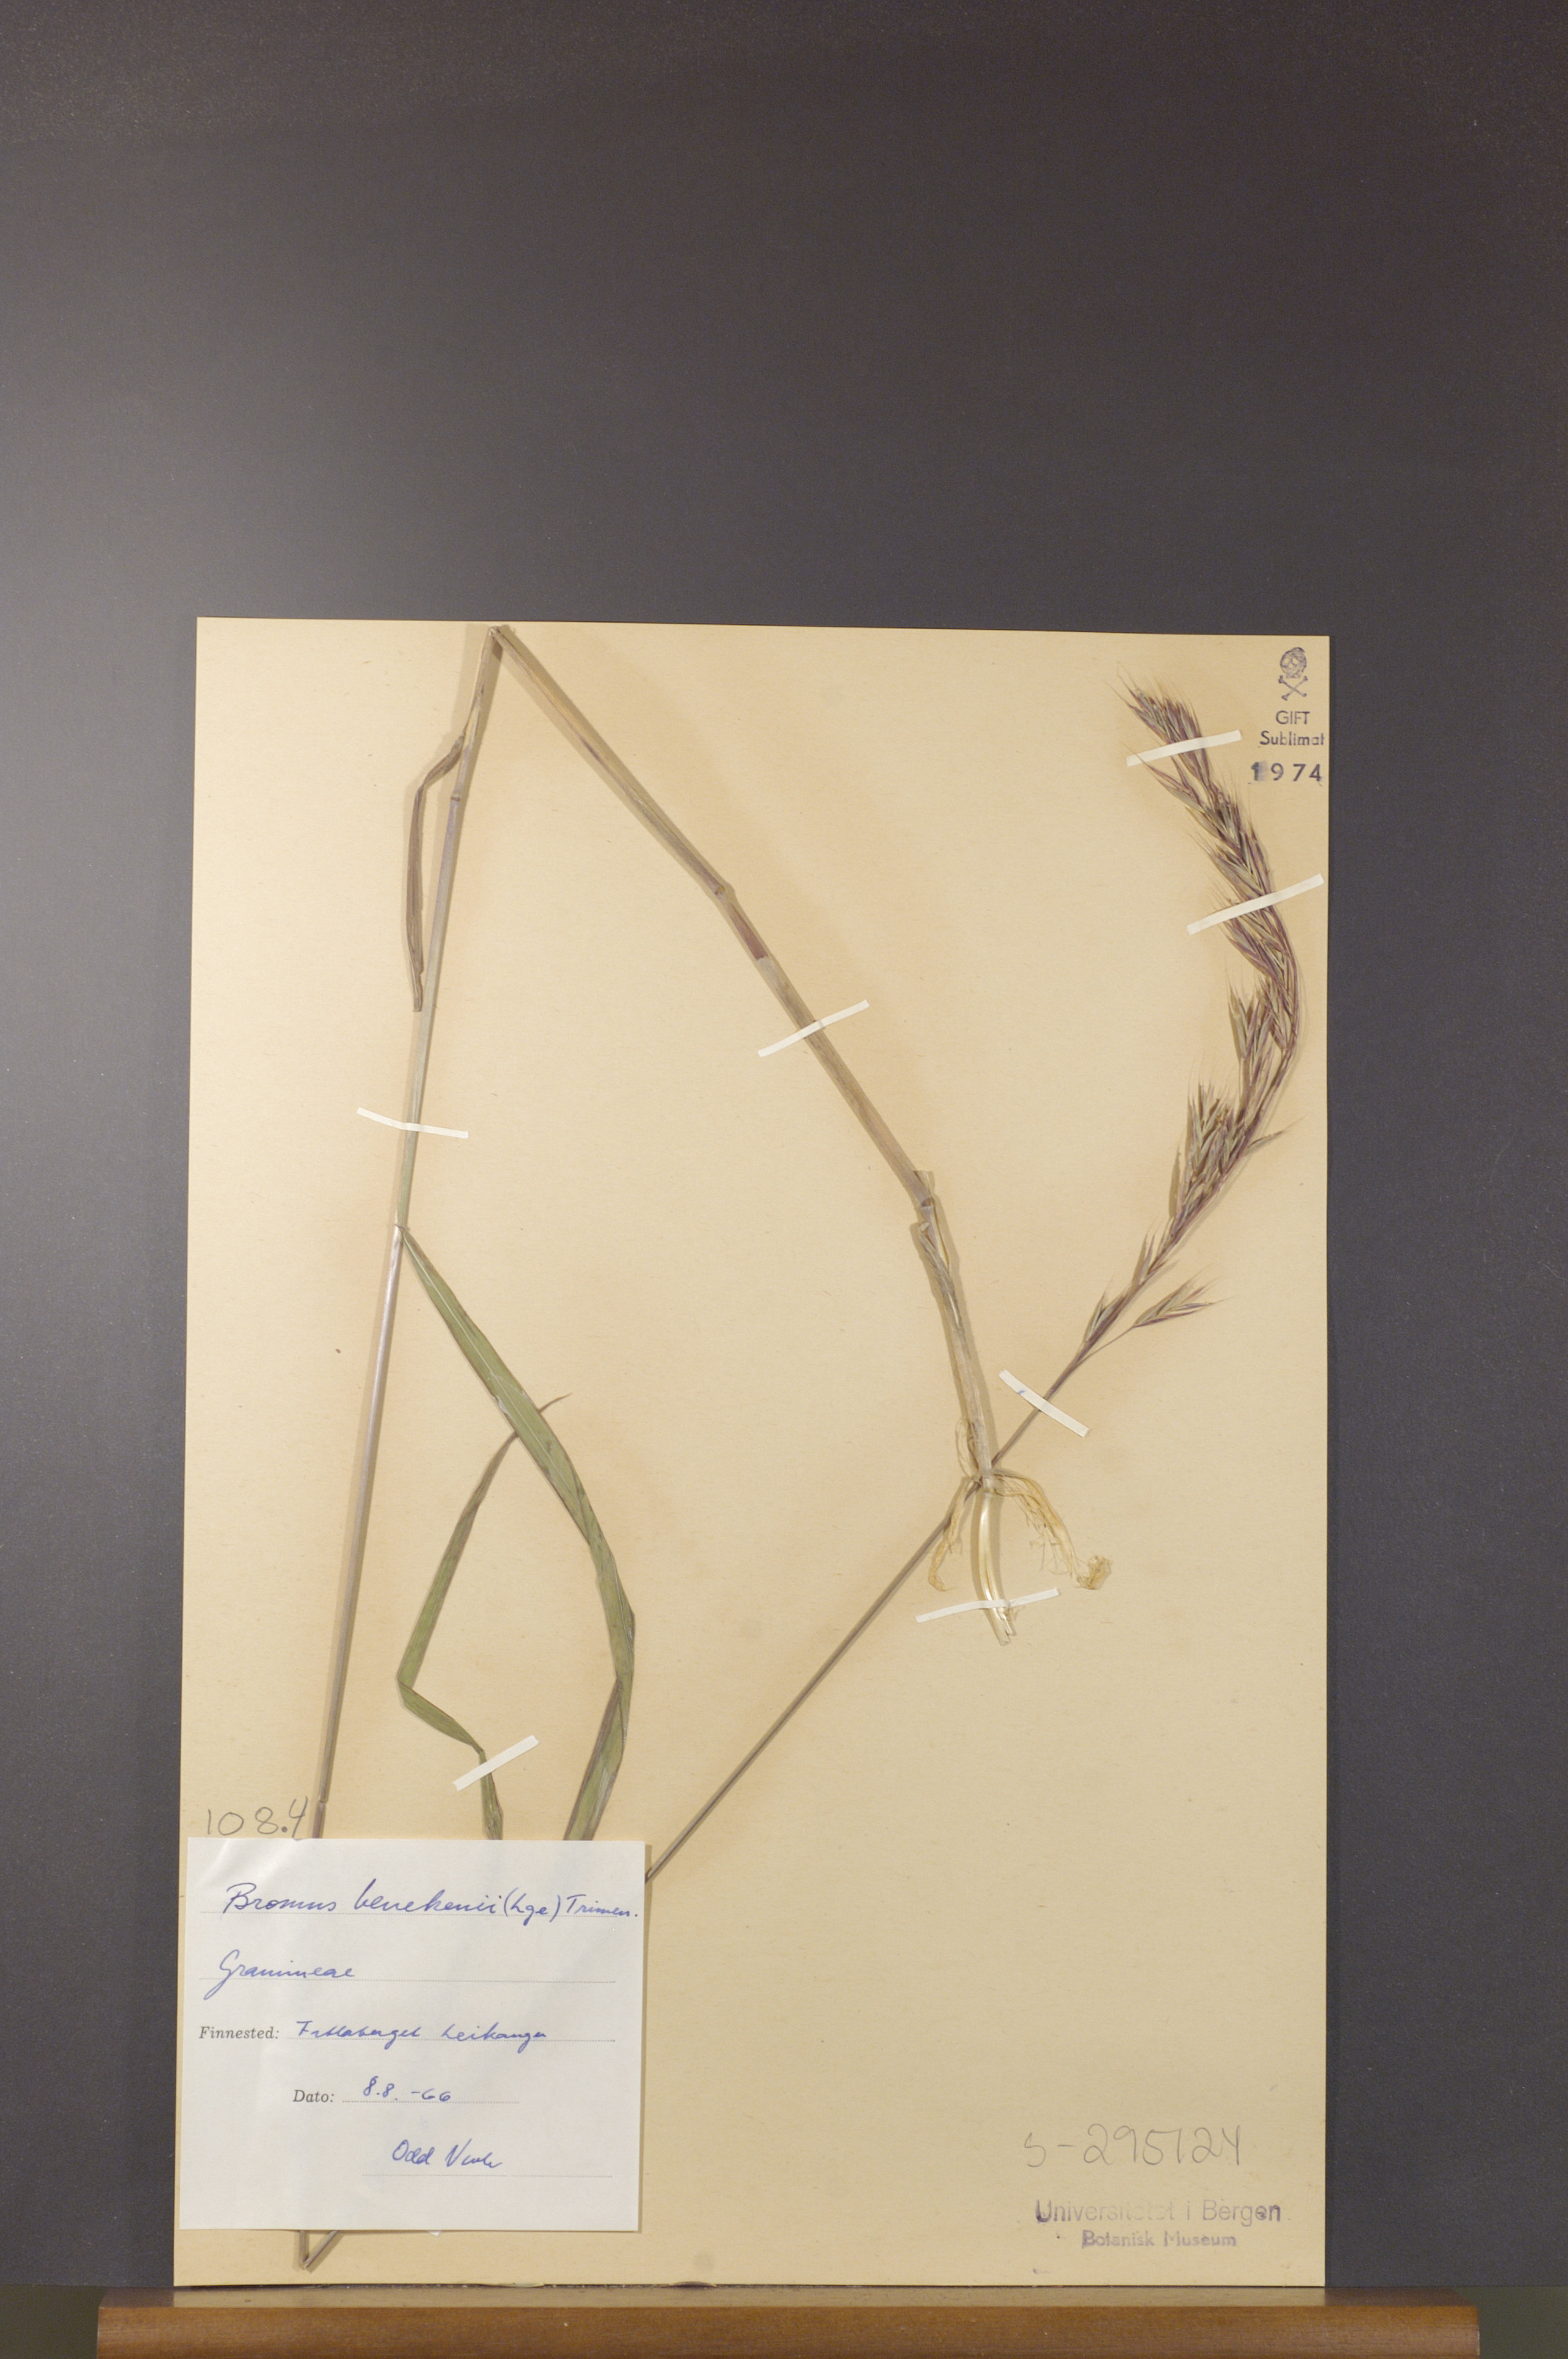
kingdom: Plantae
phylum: Tracheophyta
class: Liliopsida
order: Poales
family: Poaceae
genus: Bromus
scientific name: Bromus benekenii
